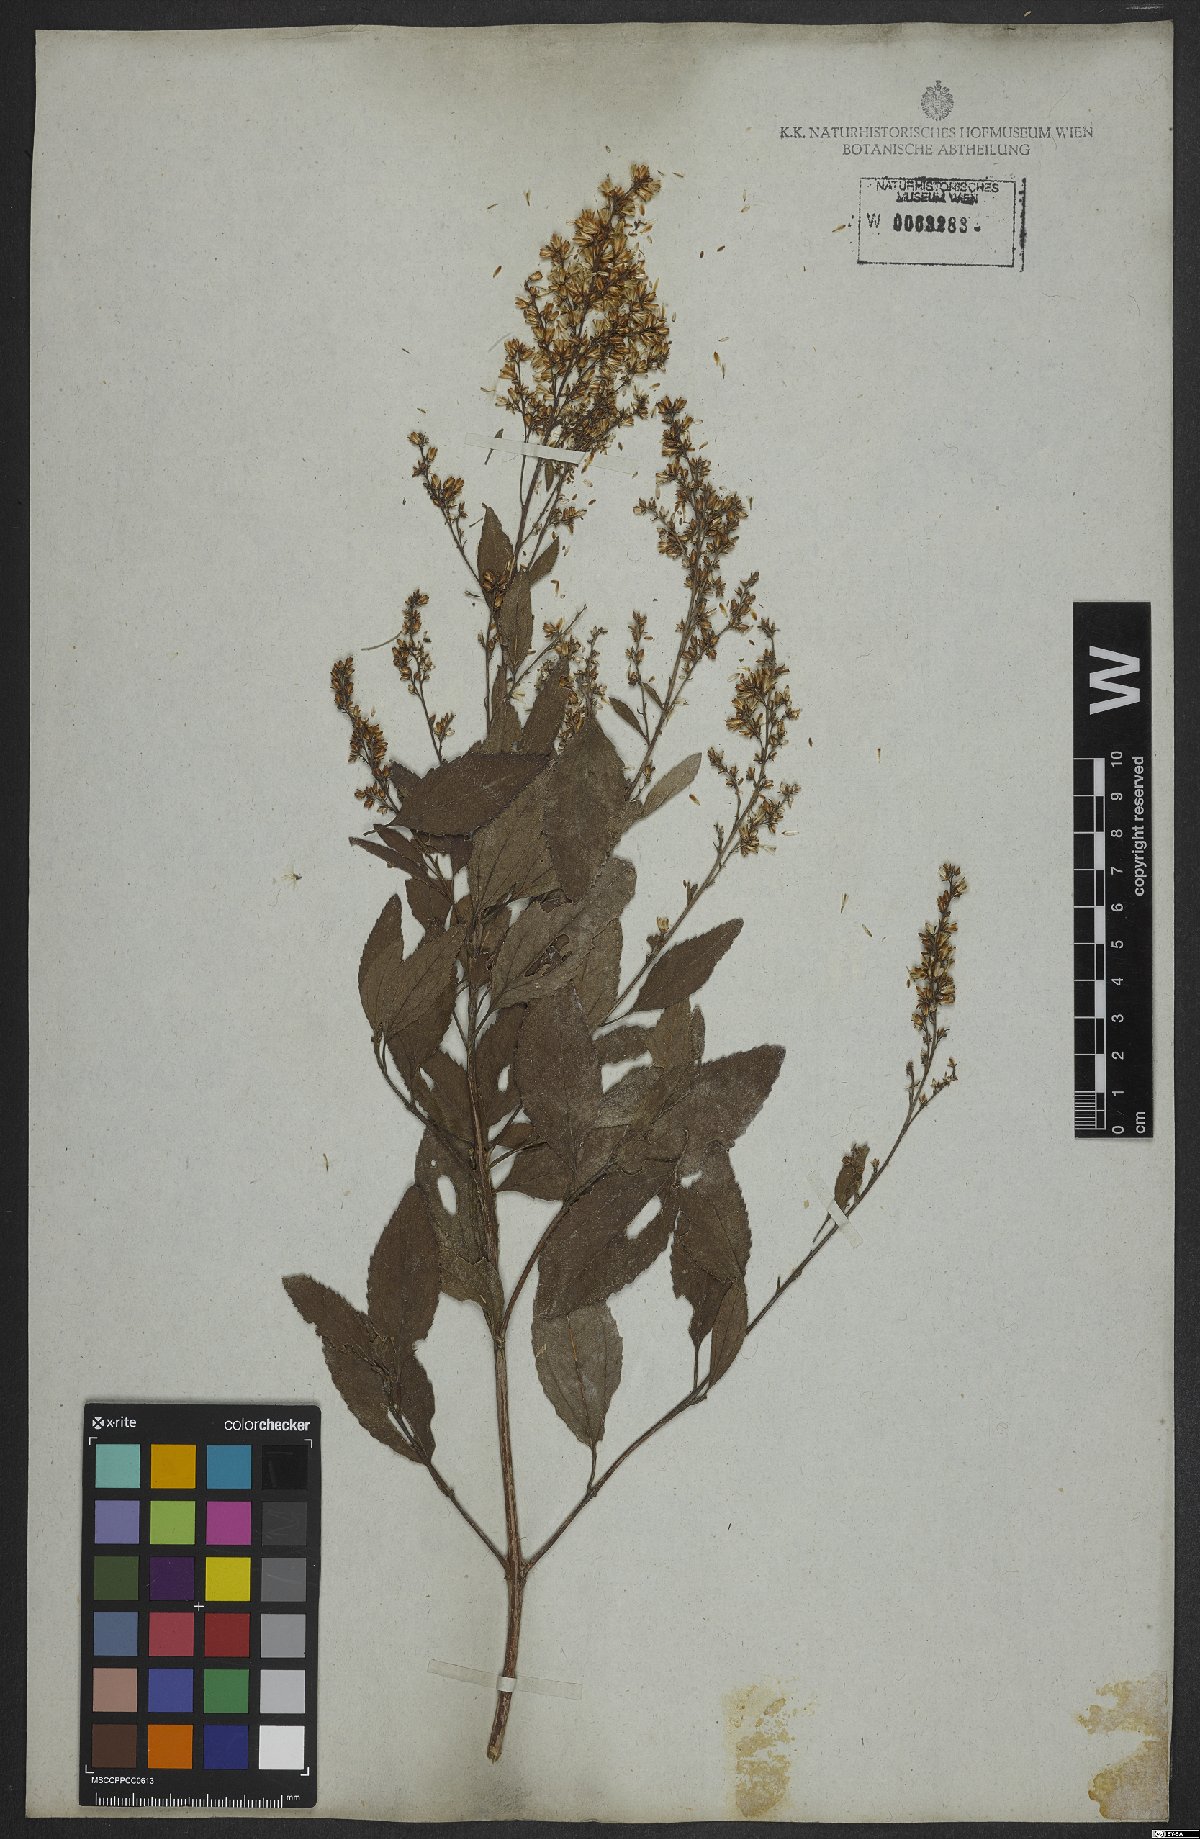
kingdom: Plantae
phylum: Tracheophyta
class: Magnoliopsida
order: Asterales
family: Asteraceae
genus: Ophryosporus
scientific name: Ophryosporus freyreysi
